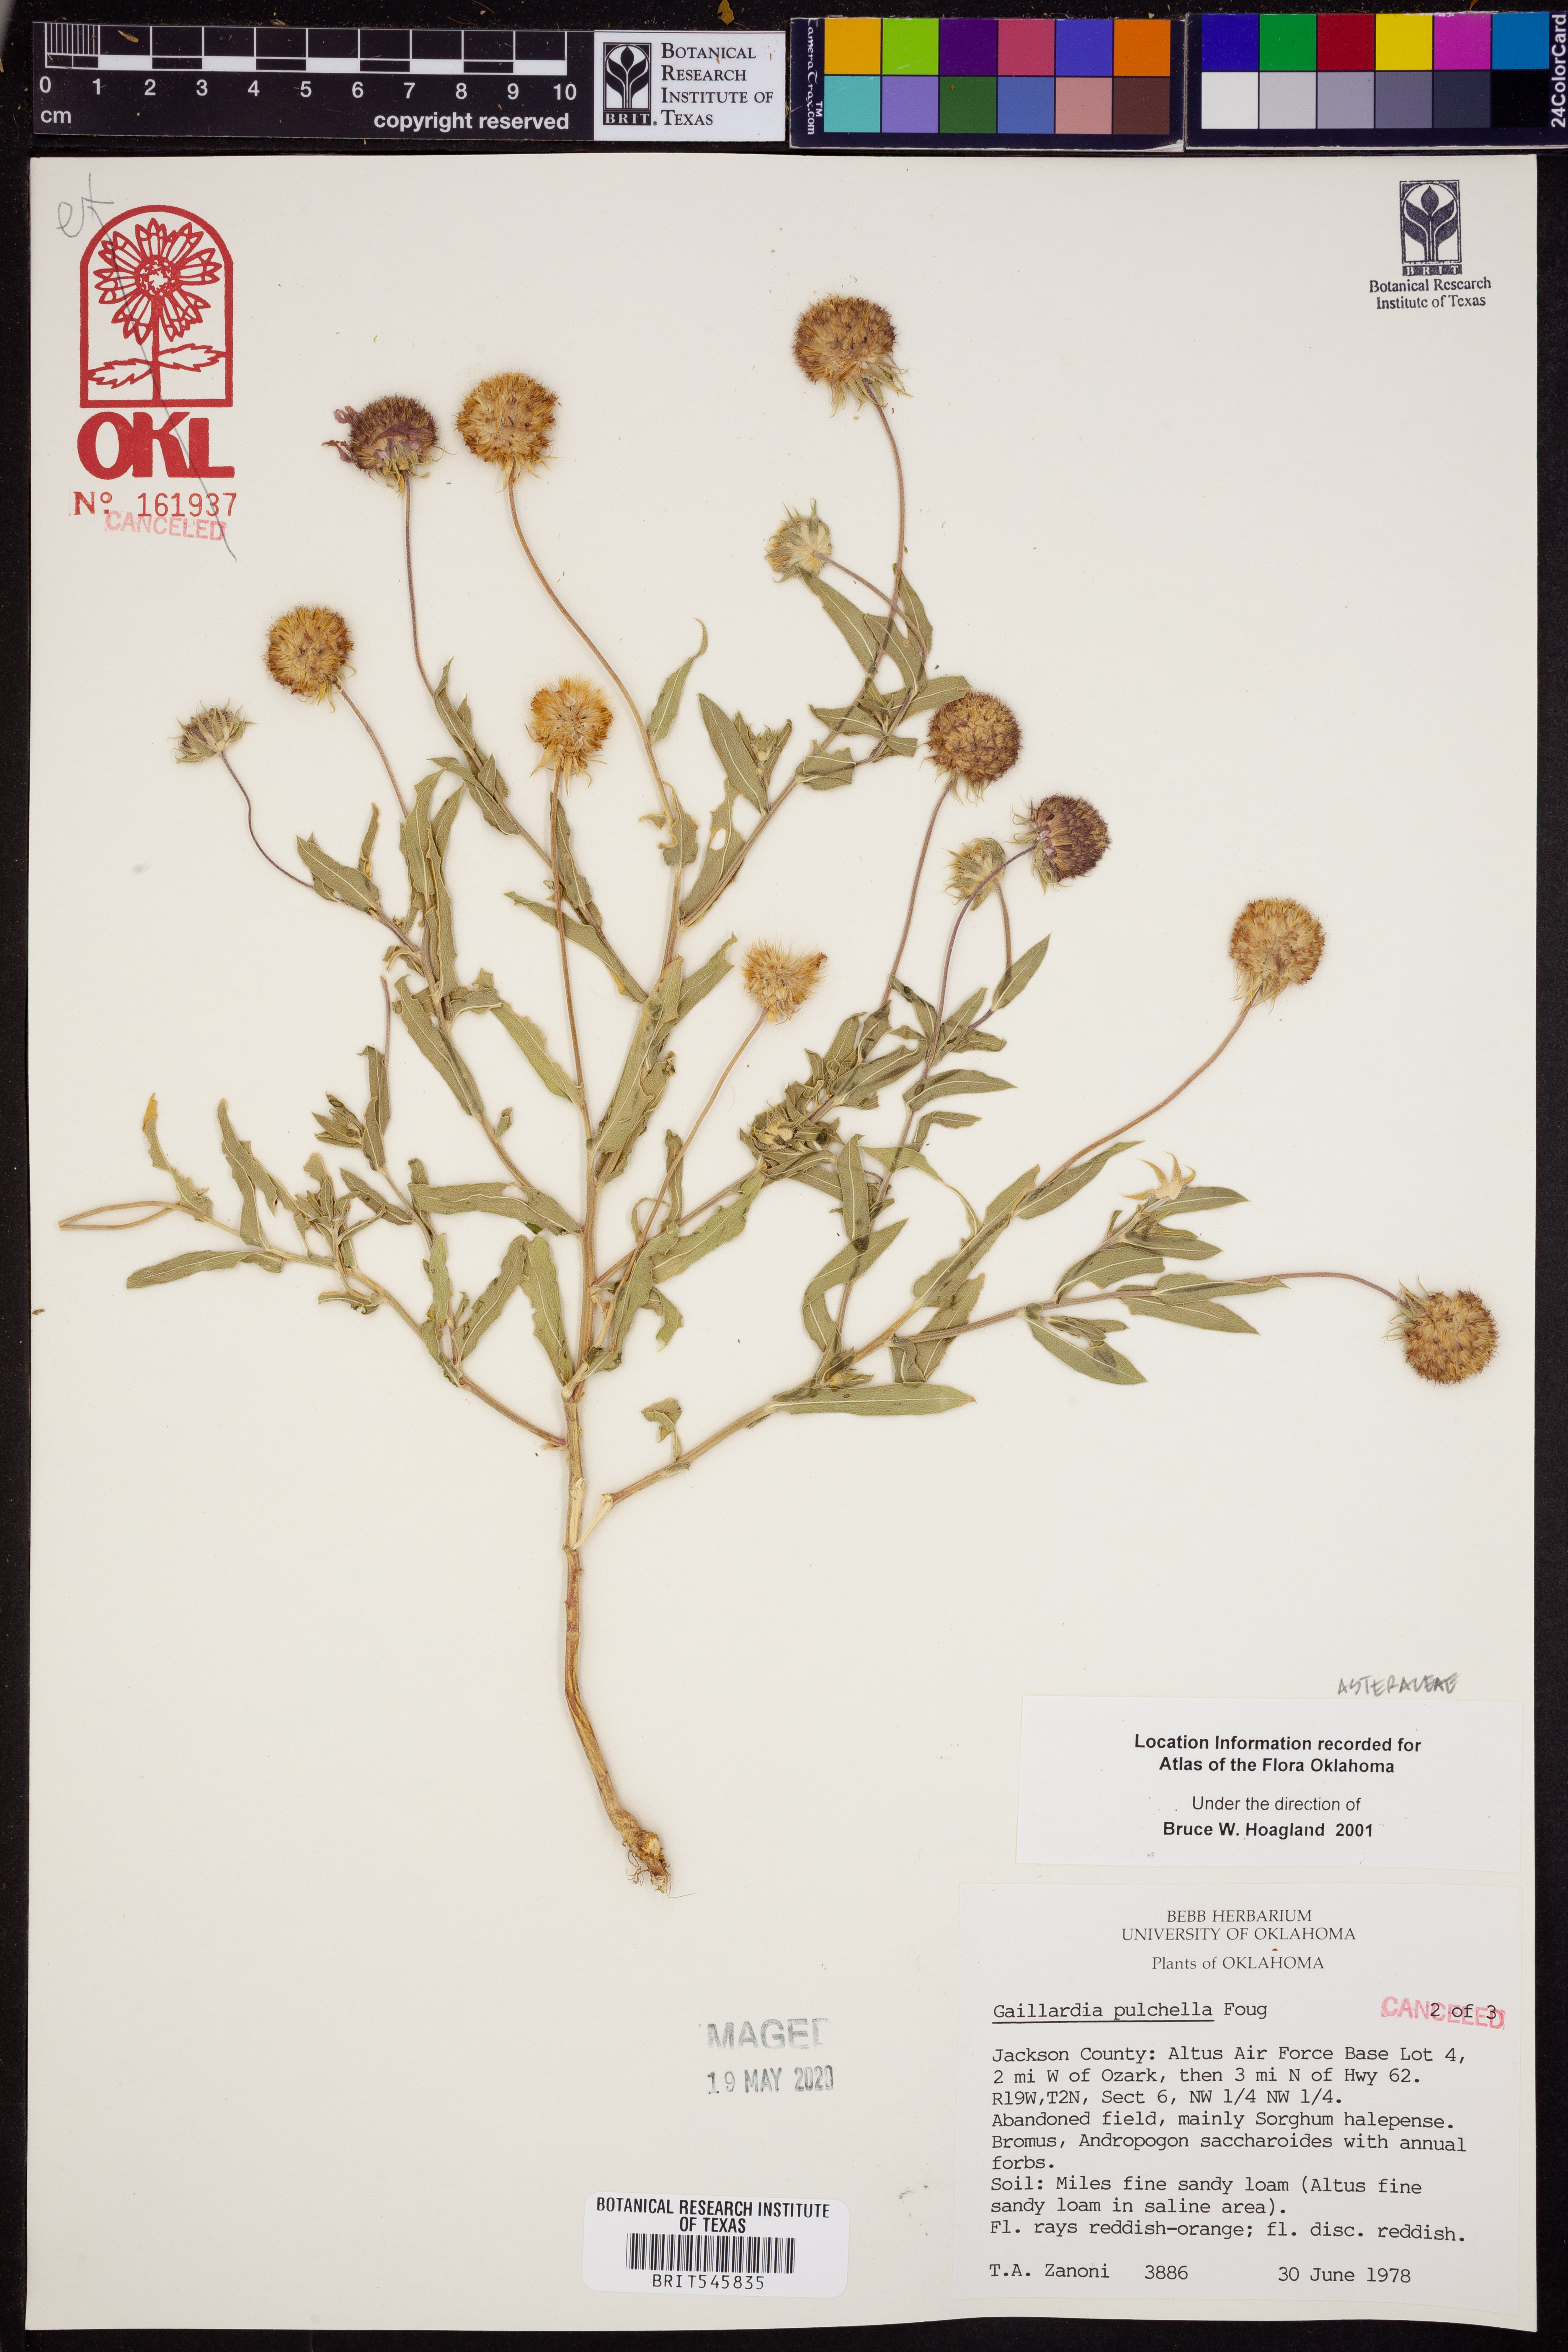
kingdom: Plantae
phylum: Tracheophyta
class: Magnoliopsida
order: Asterales
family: Asteraceae
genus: Gaillardia
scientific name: Gaillardia pulchella
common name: Firewheel
